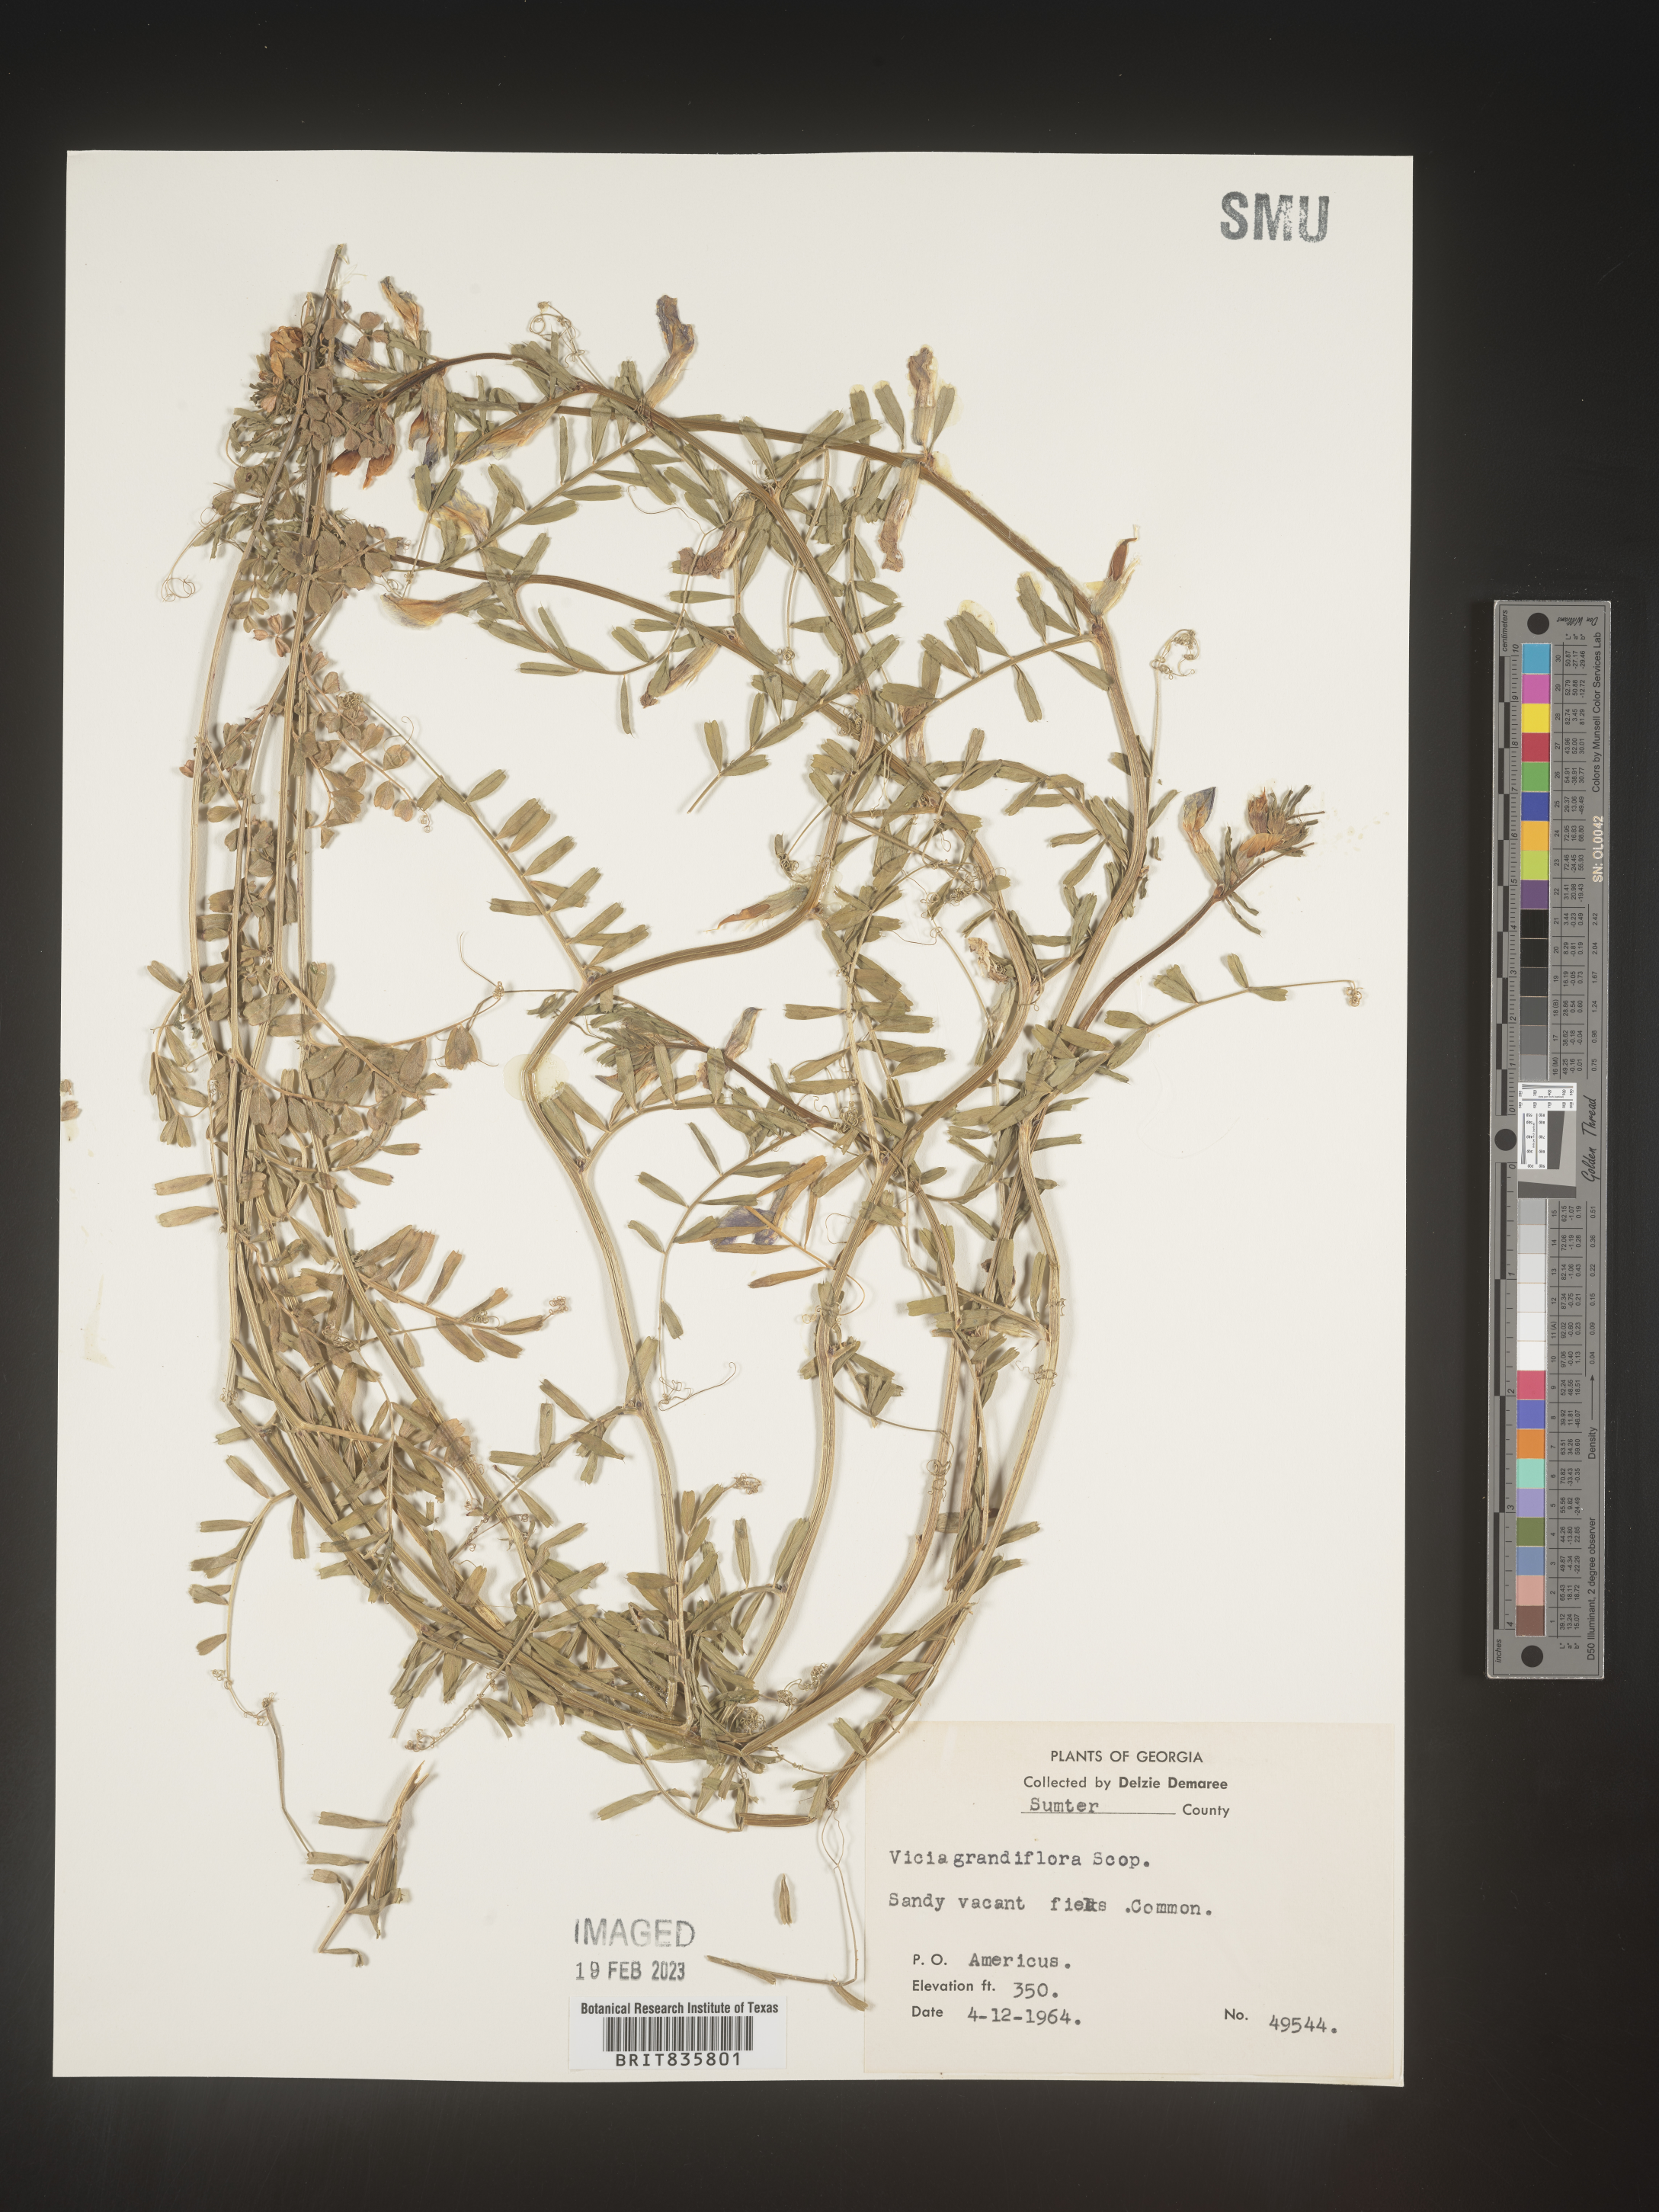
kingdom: Plantae
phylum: Tracheophyta
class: Magnoliopsida
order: Fabales
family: Fabaceae
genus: Vicia
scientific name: Vicia grandiflora
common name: Large yellow vetch
